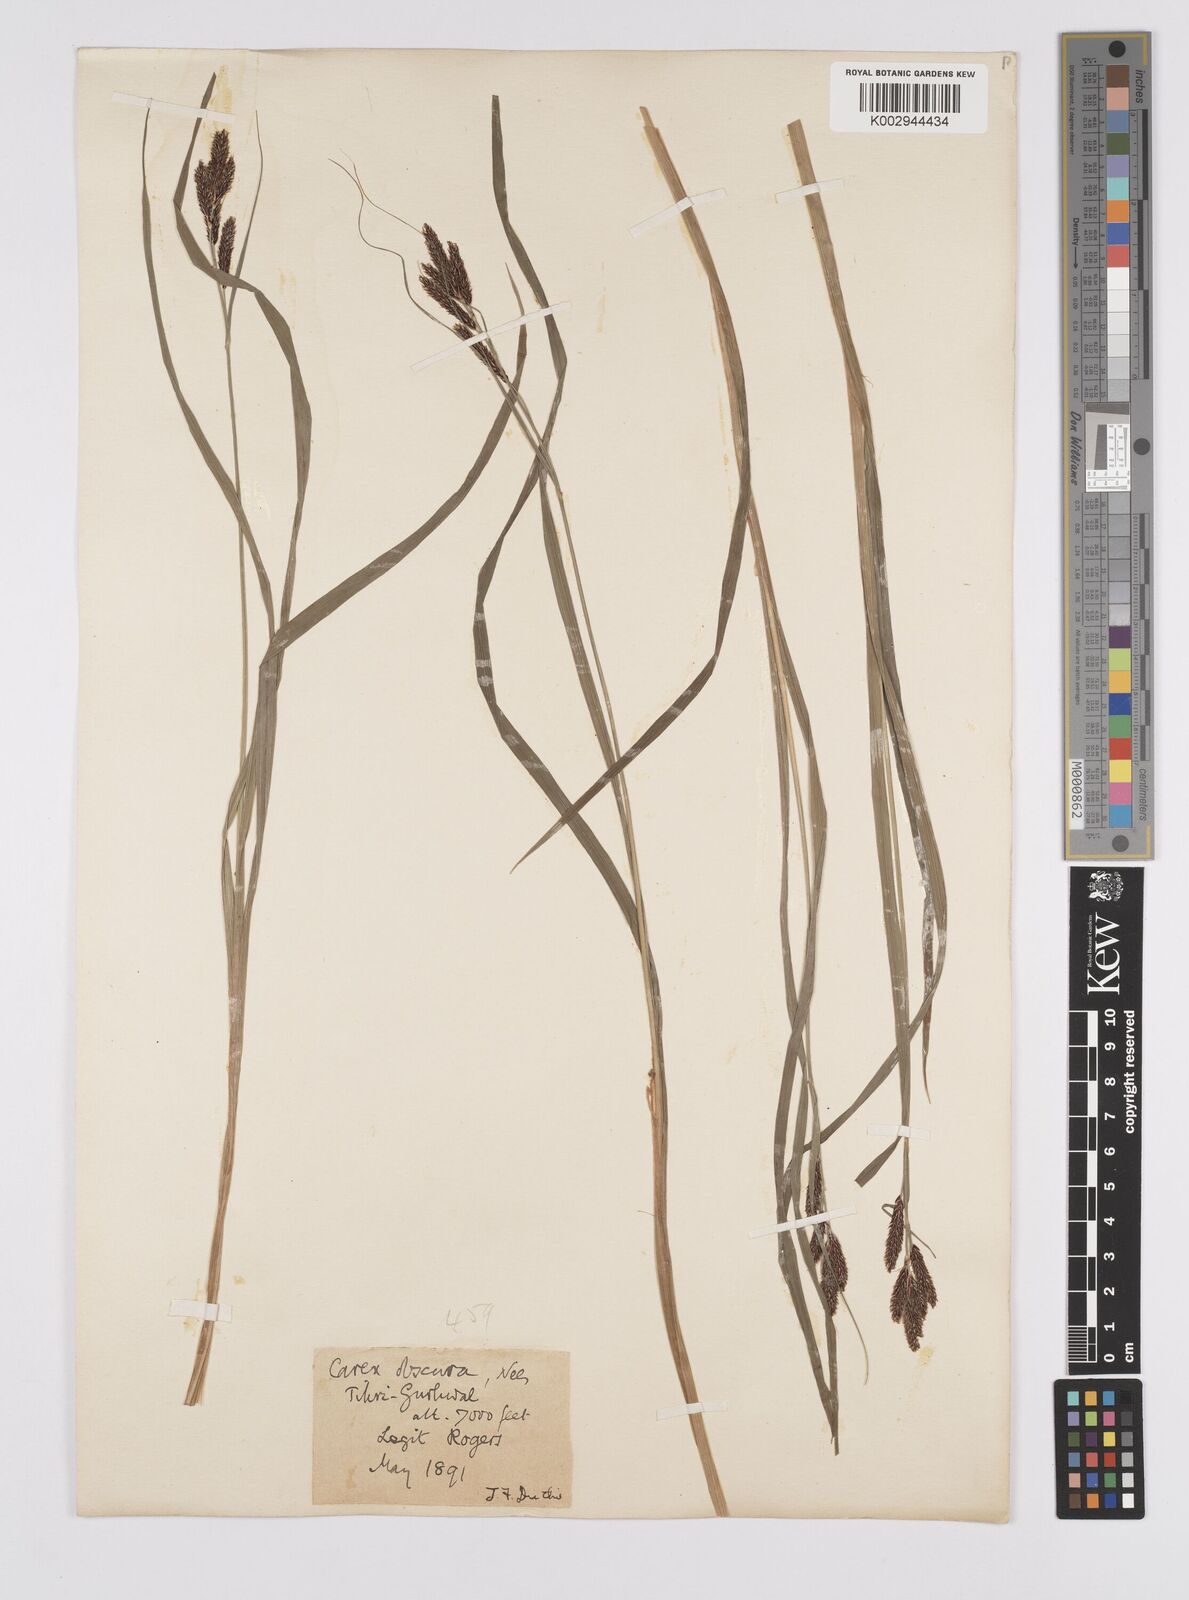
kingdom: Plantae
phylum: Tracheophyta
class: Liliopsida
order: Poales
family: Cyperaceae
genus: Carex
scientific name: Carex obscura
